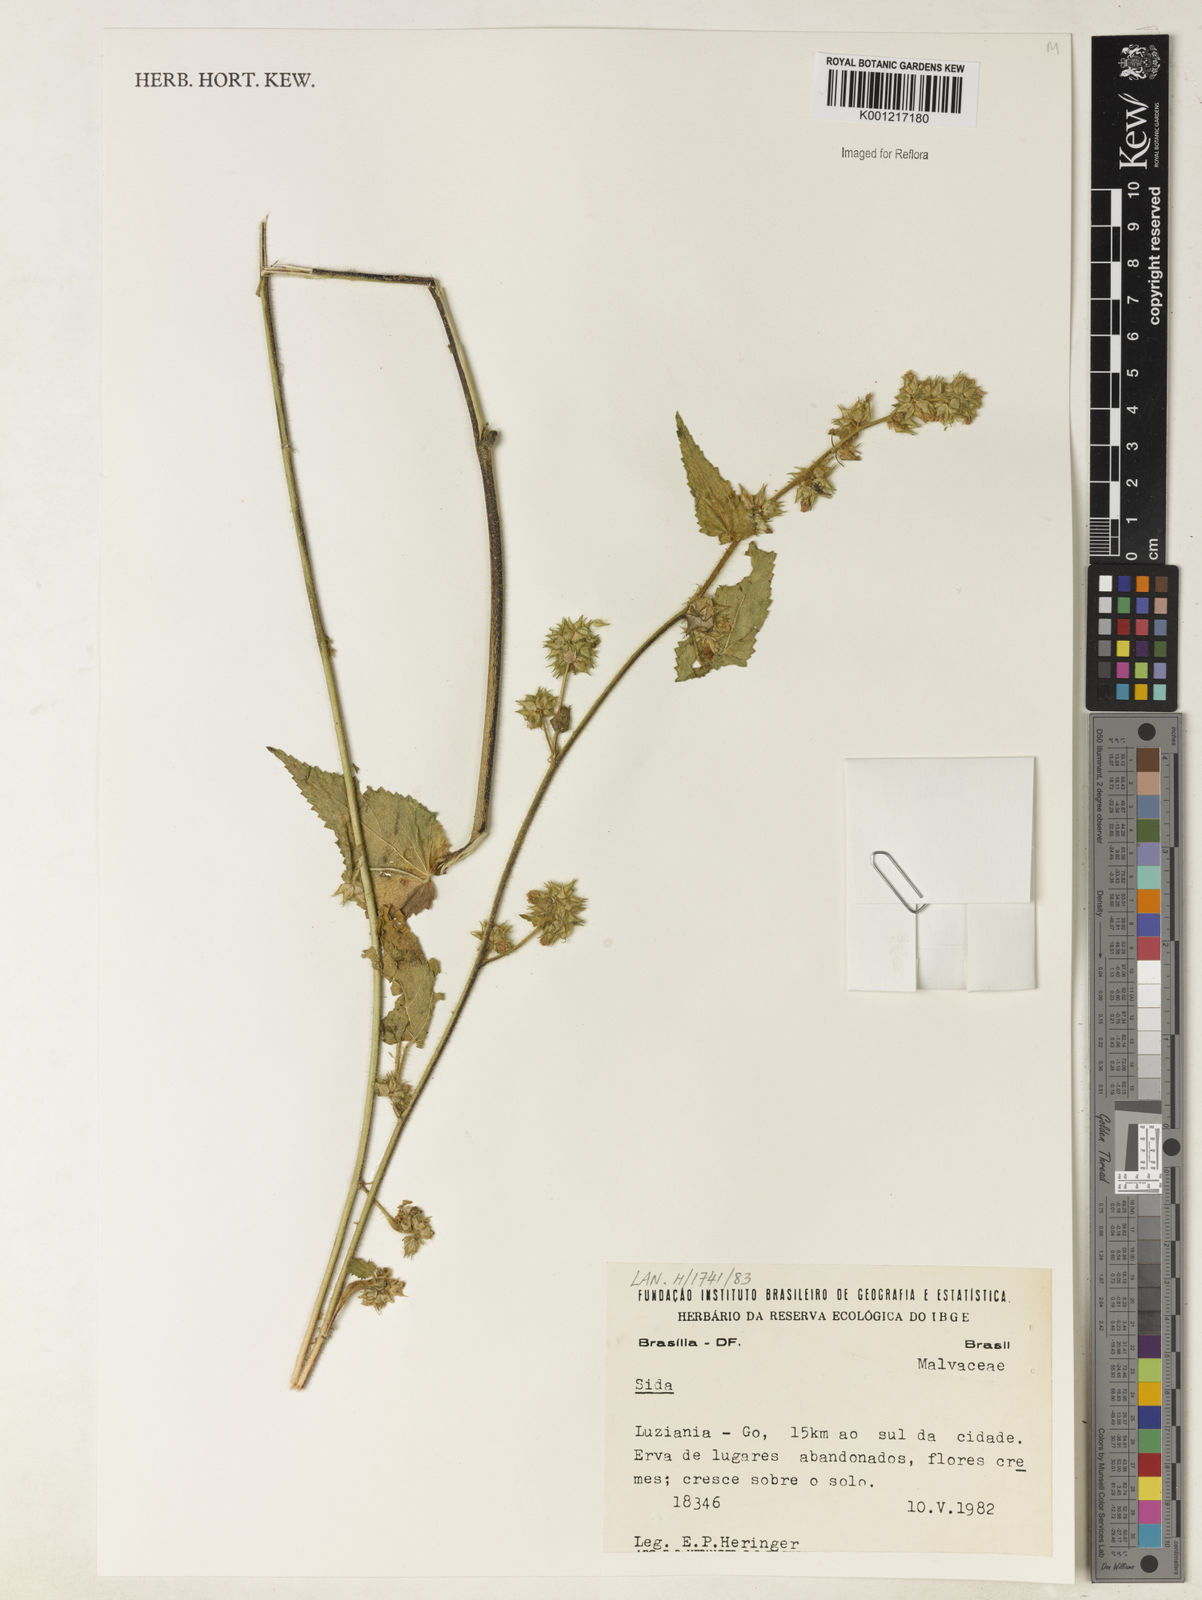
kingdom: Plantae
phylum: Tracheophyta
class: Magnoliopsida
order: Malvales
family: Malvaceae
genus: Sida
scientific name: Sida
